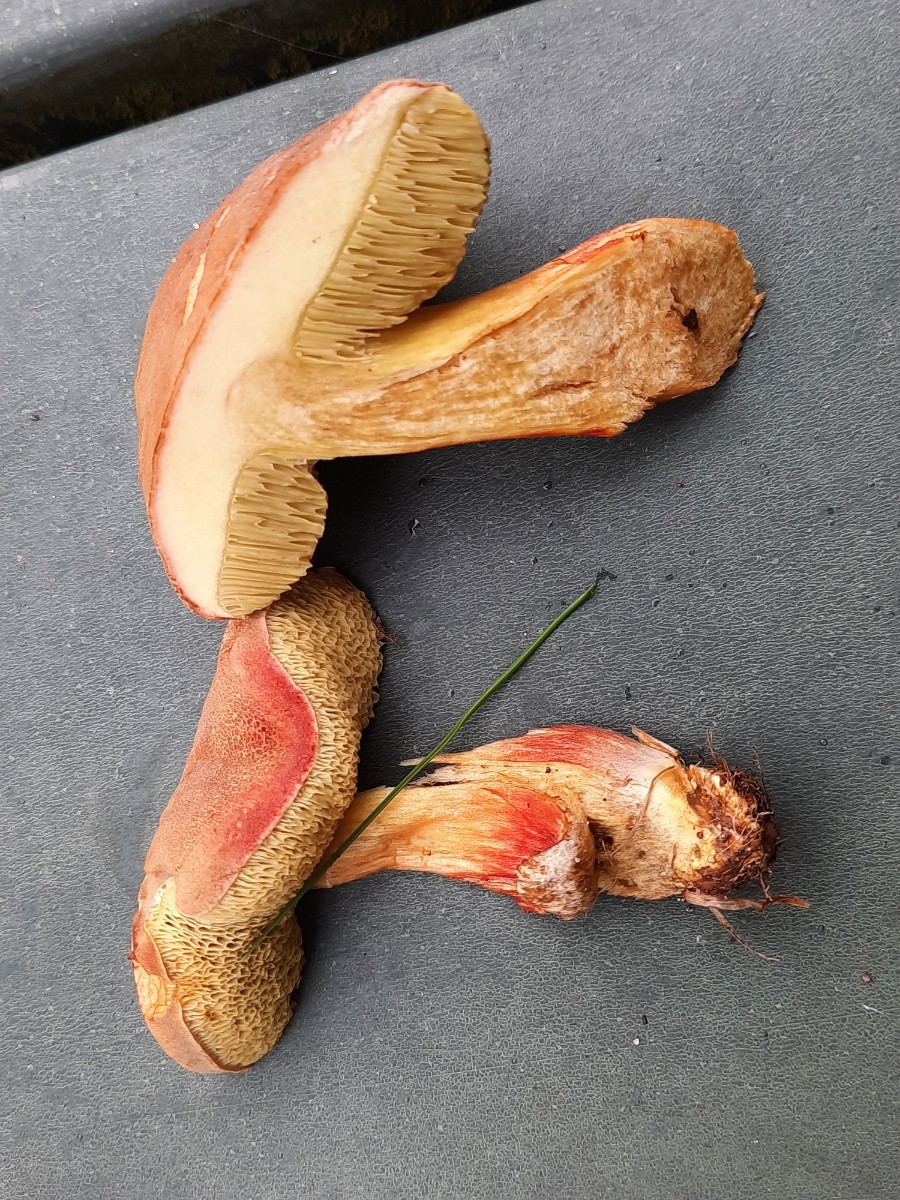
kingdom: Fungi
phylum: Basidiomycota
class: Agaricomycetes
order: Boletales
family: Boletaceae
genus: Hortiboletus
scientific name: Hortiboletus rubellus
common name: blodrød rørhat
